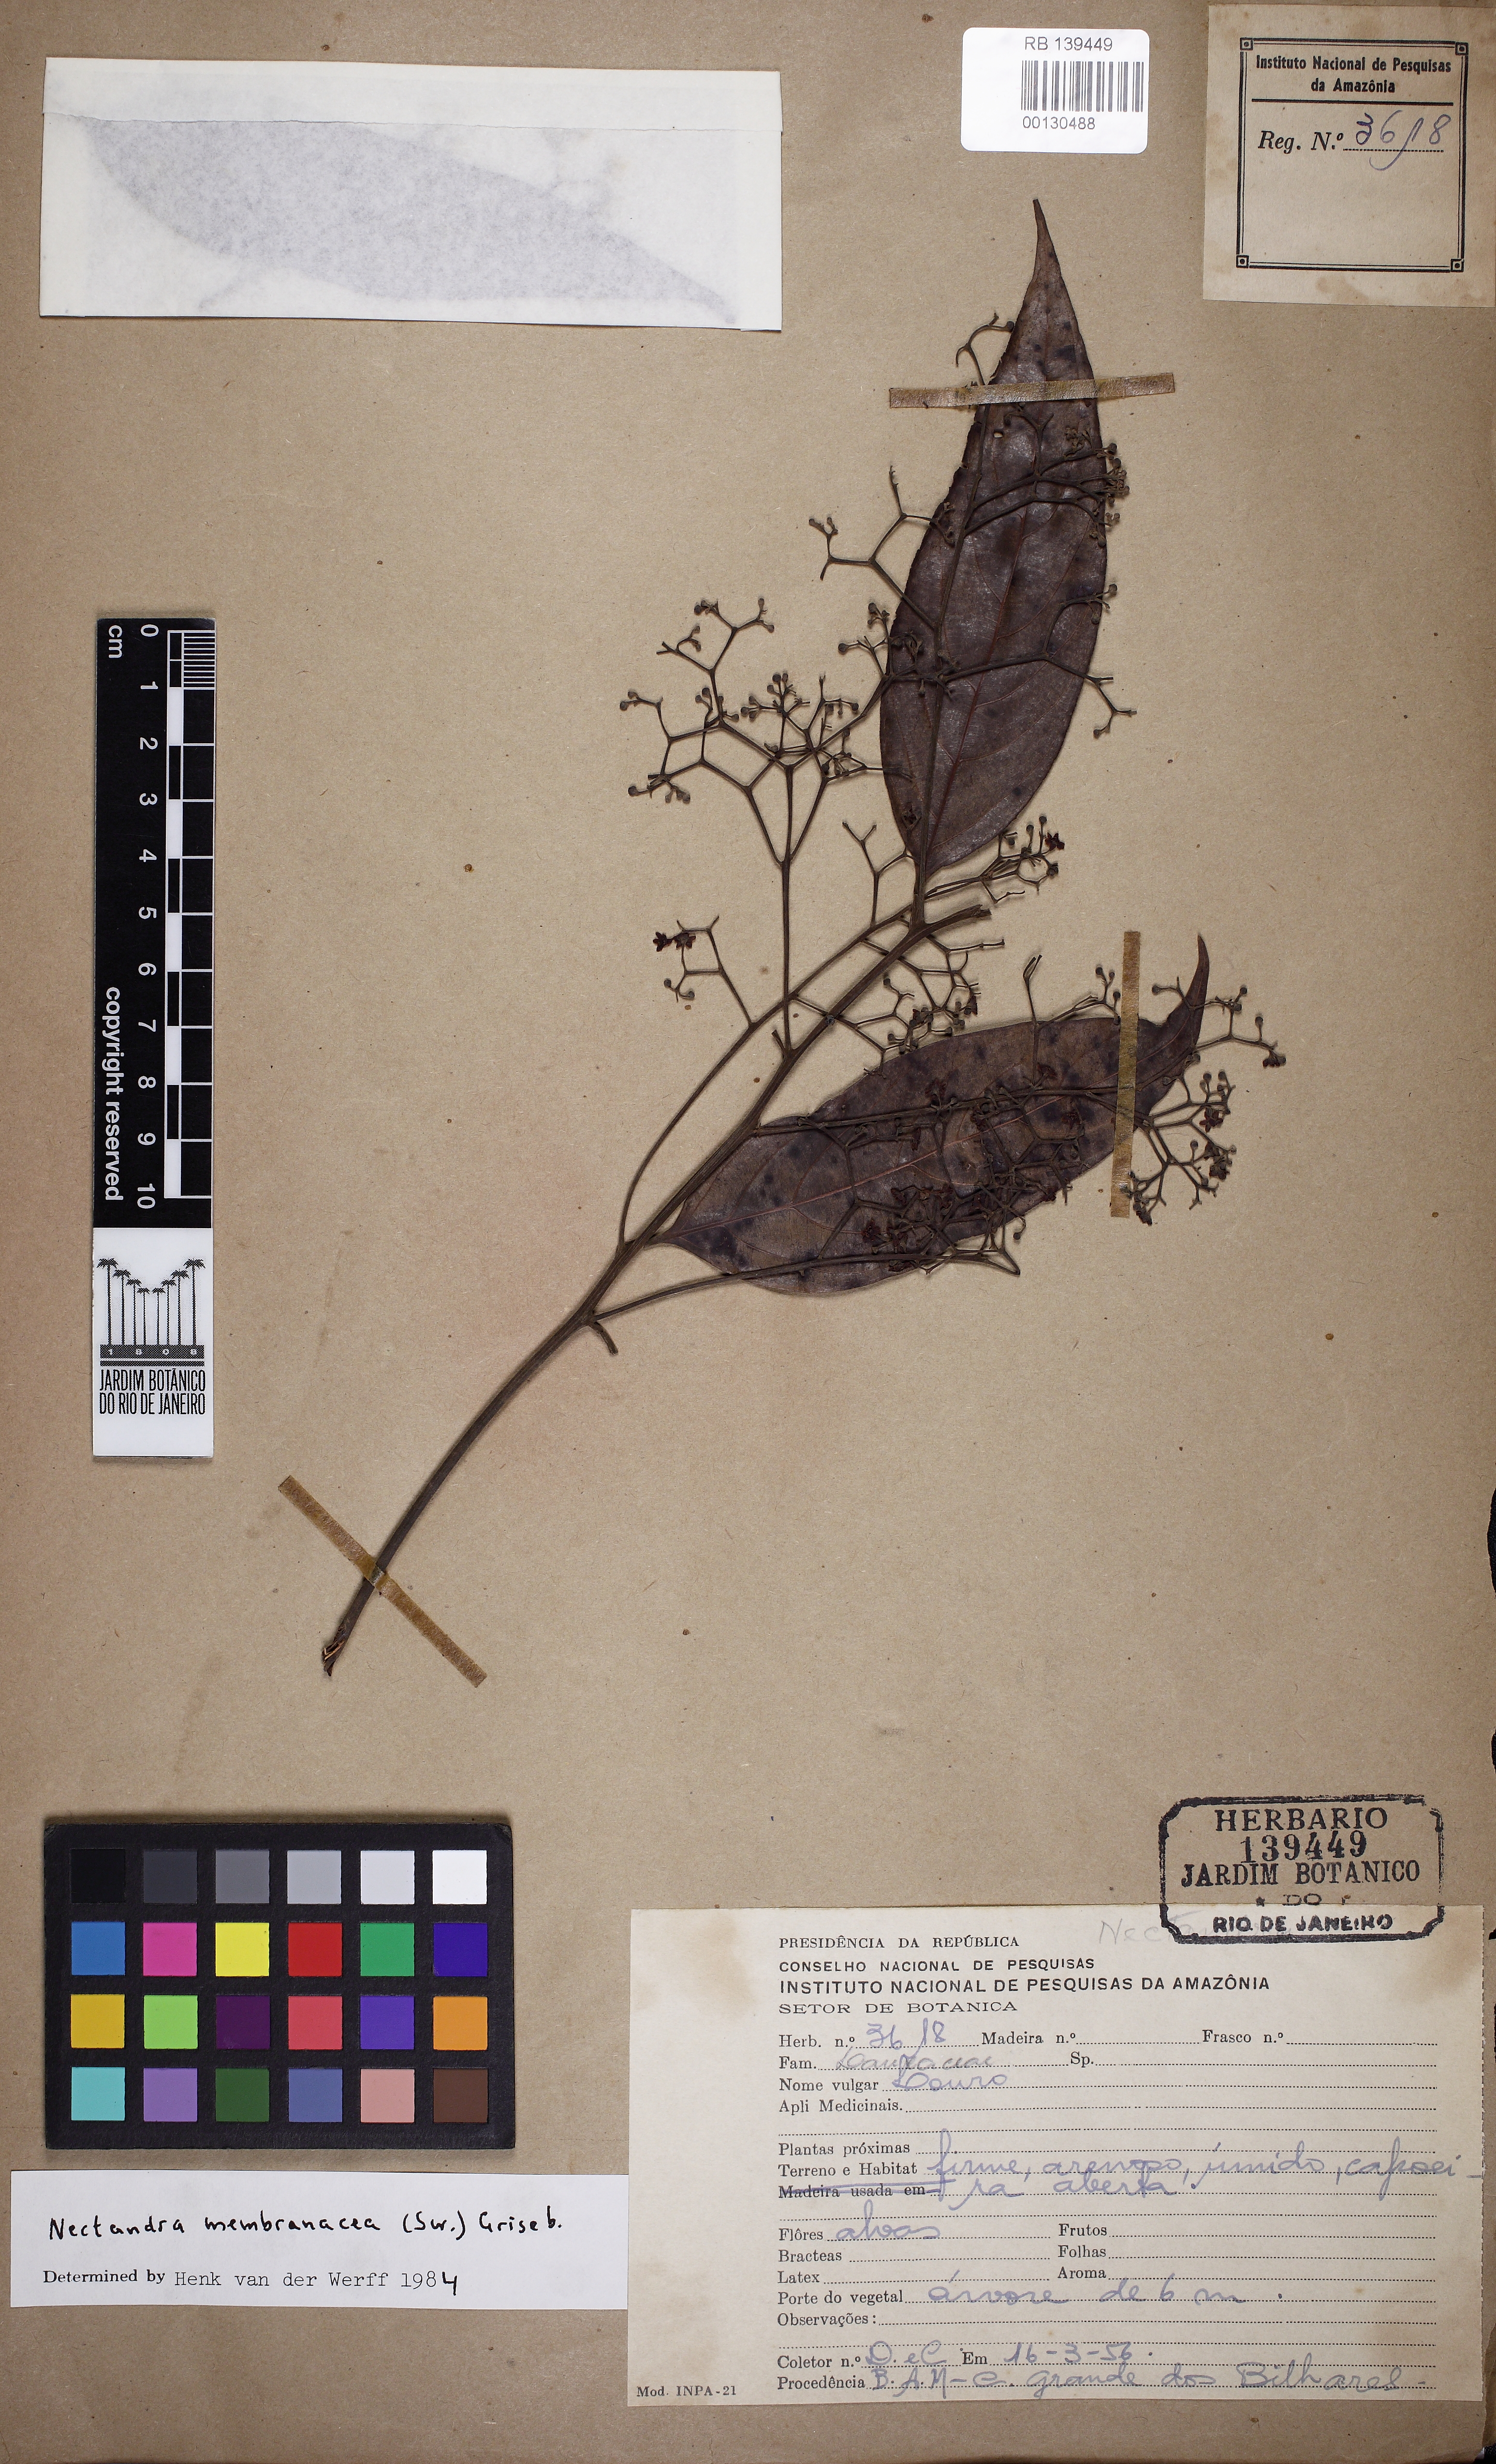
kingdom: Plantae
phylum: Tracheophyta
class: Magnoliopsida
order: Laurales
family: Lauraceae
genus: Nectandra
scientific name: Nectandra membranacea
